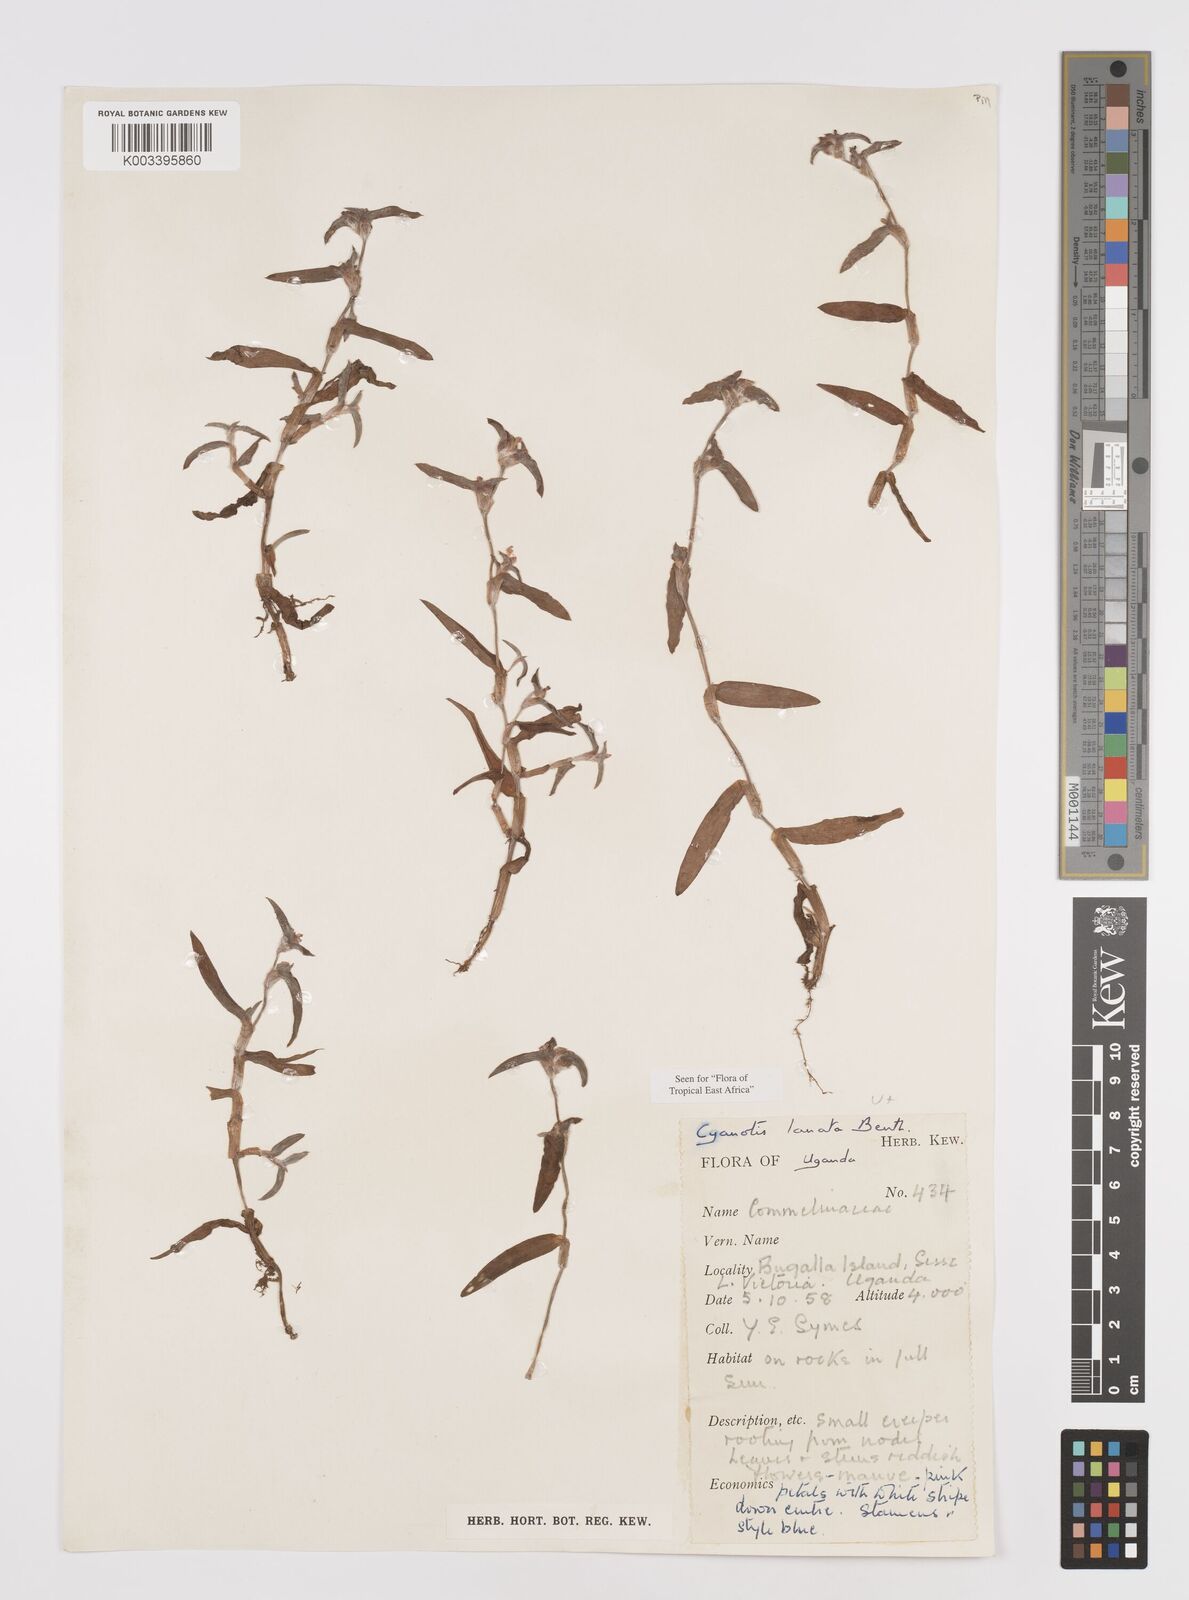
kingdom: Plantae
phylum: Tracheophyta
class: Liliopsida
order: Commelinales
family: Commelinaceae
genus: Cyanotis
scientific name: Cyanotis lanata
